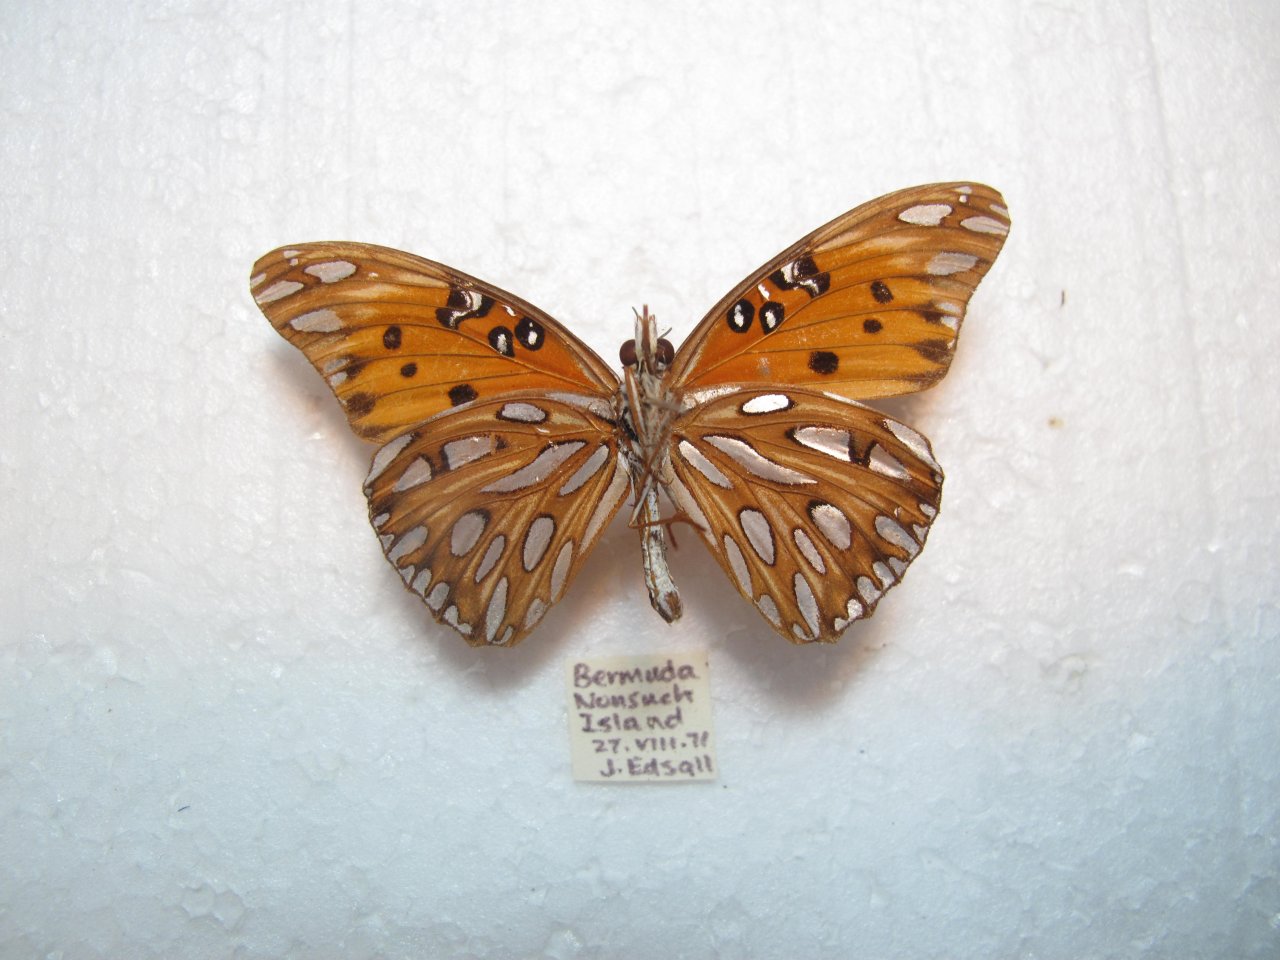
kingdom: Animalia
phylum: Arthropoda
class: Insecta
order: Lepidoptera
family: Nymphalidae
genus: Dione
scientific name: Dione vanillae
